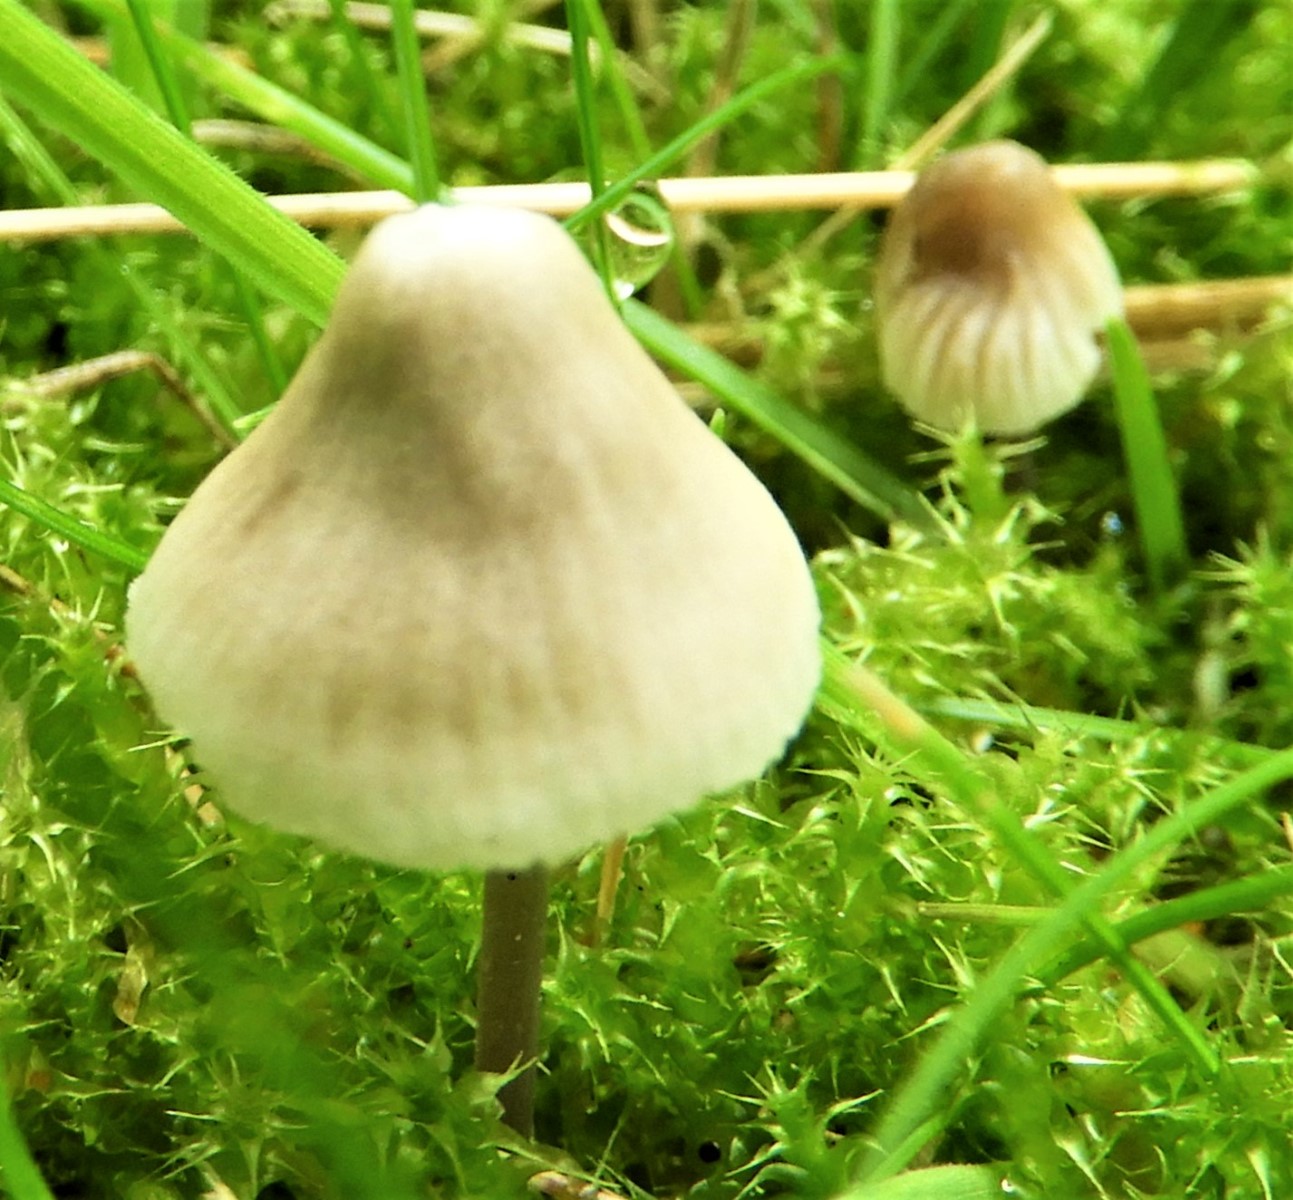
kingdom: Fungi
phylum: Basidiomycota
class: Agaricomycetes
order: Agaricales
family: Mycenaceae
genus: Mycena
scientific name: Mycena leptocephala
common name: klor-huesvamp
